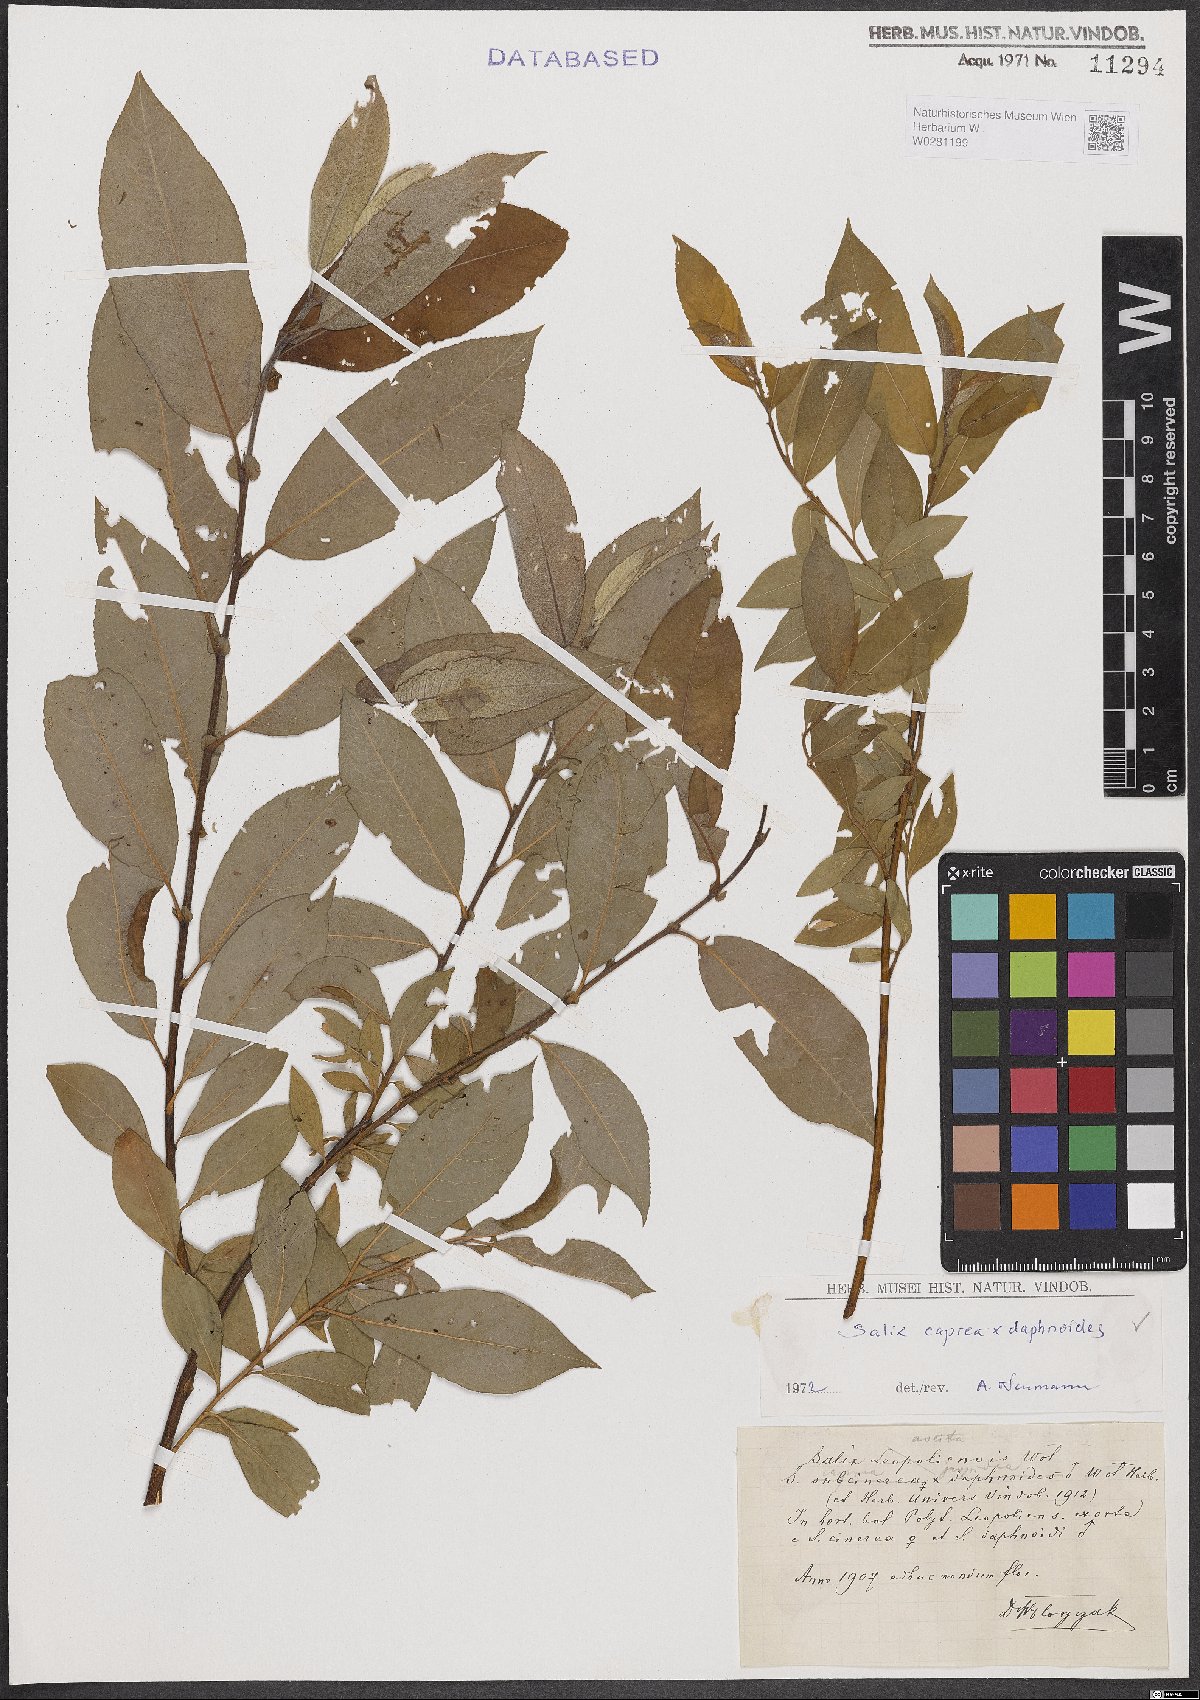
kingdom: Plantae
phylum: Tracheophyta
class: Magnoliopsida
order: Malpighiales
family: Salicaceae
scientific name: Salicaceae
